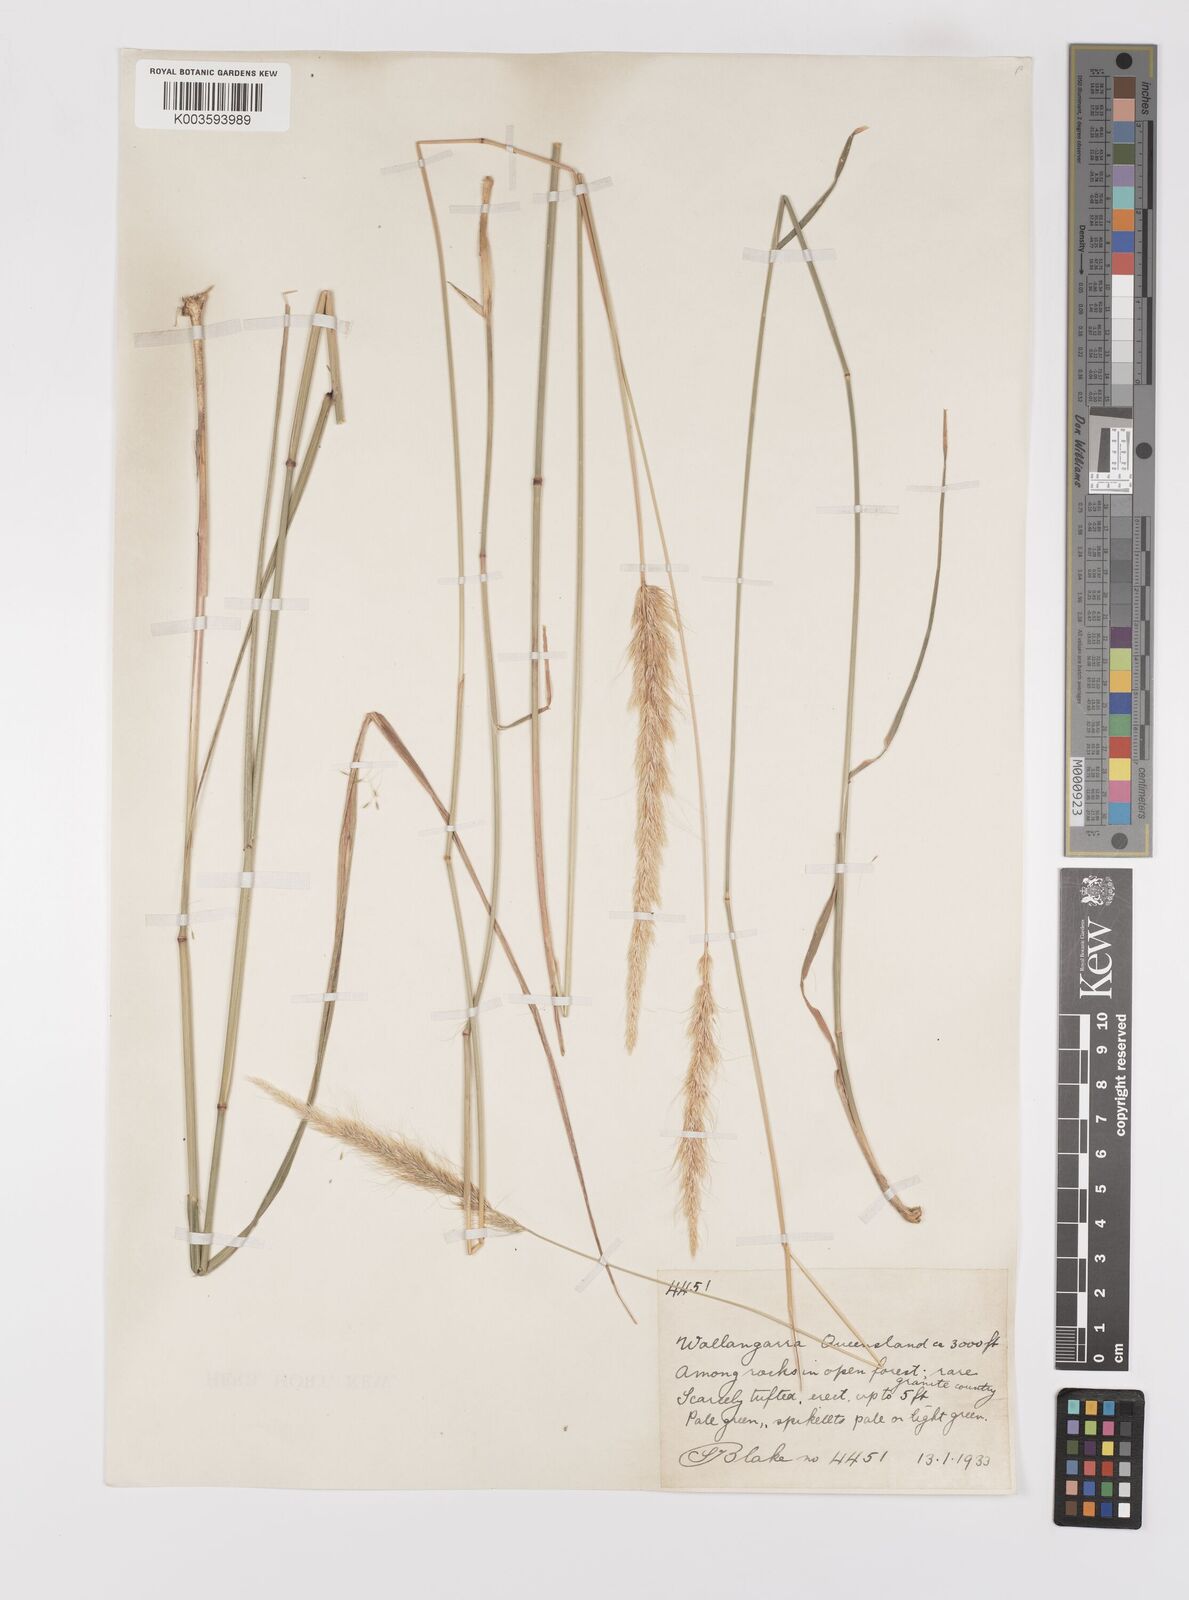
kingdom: Plantae
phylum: Tracheophyta
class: Liliopsida
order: Poales
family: Poaceae
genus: Dichelachne
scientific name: Dichelachne micrantha
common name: Plumegrass
